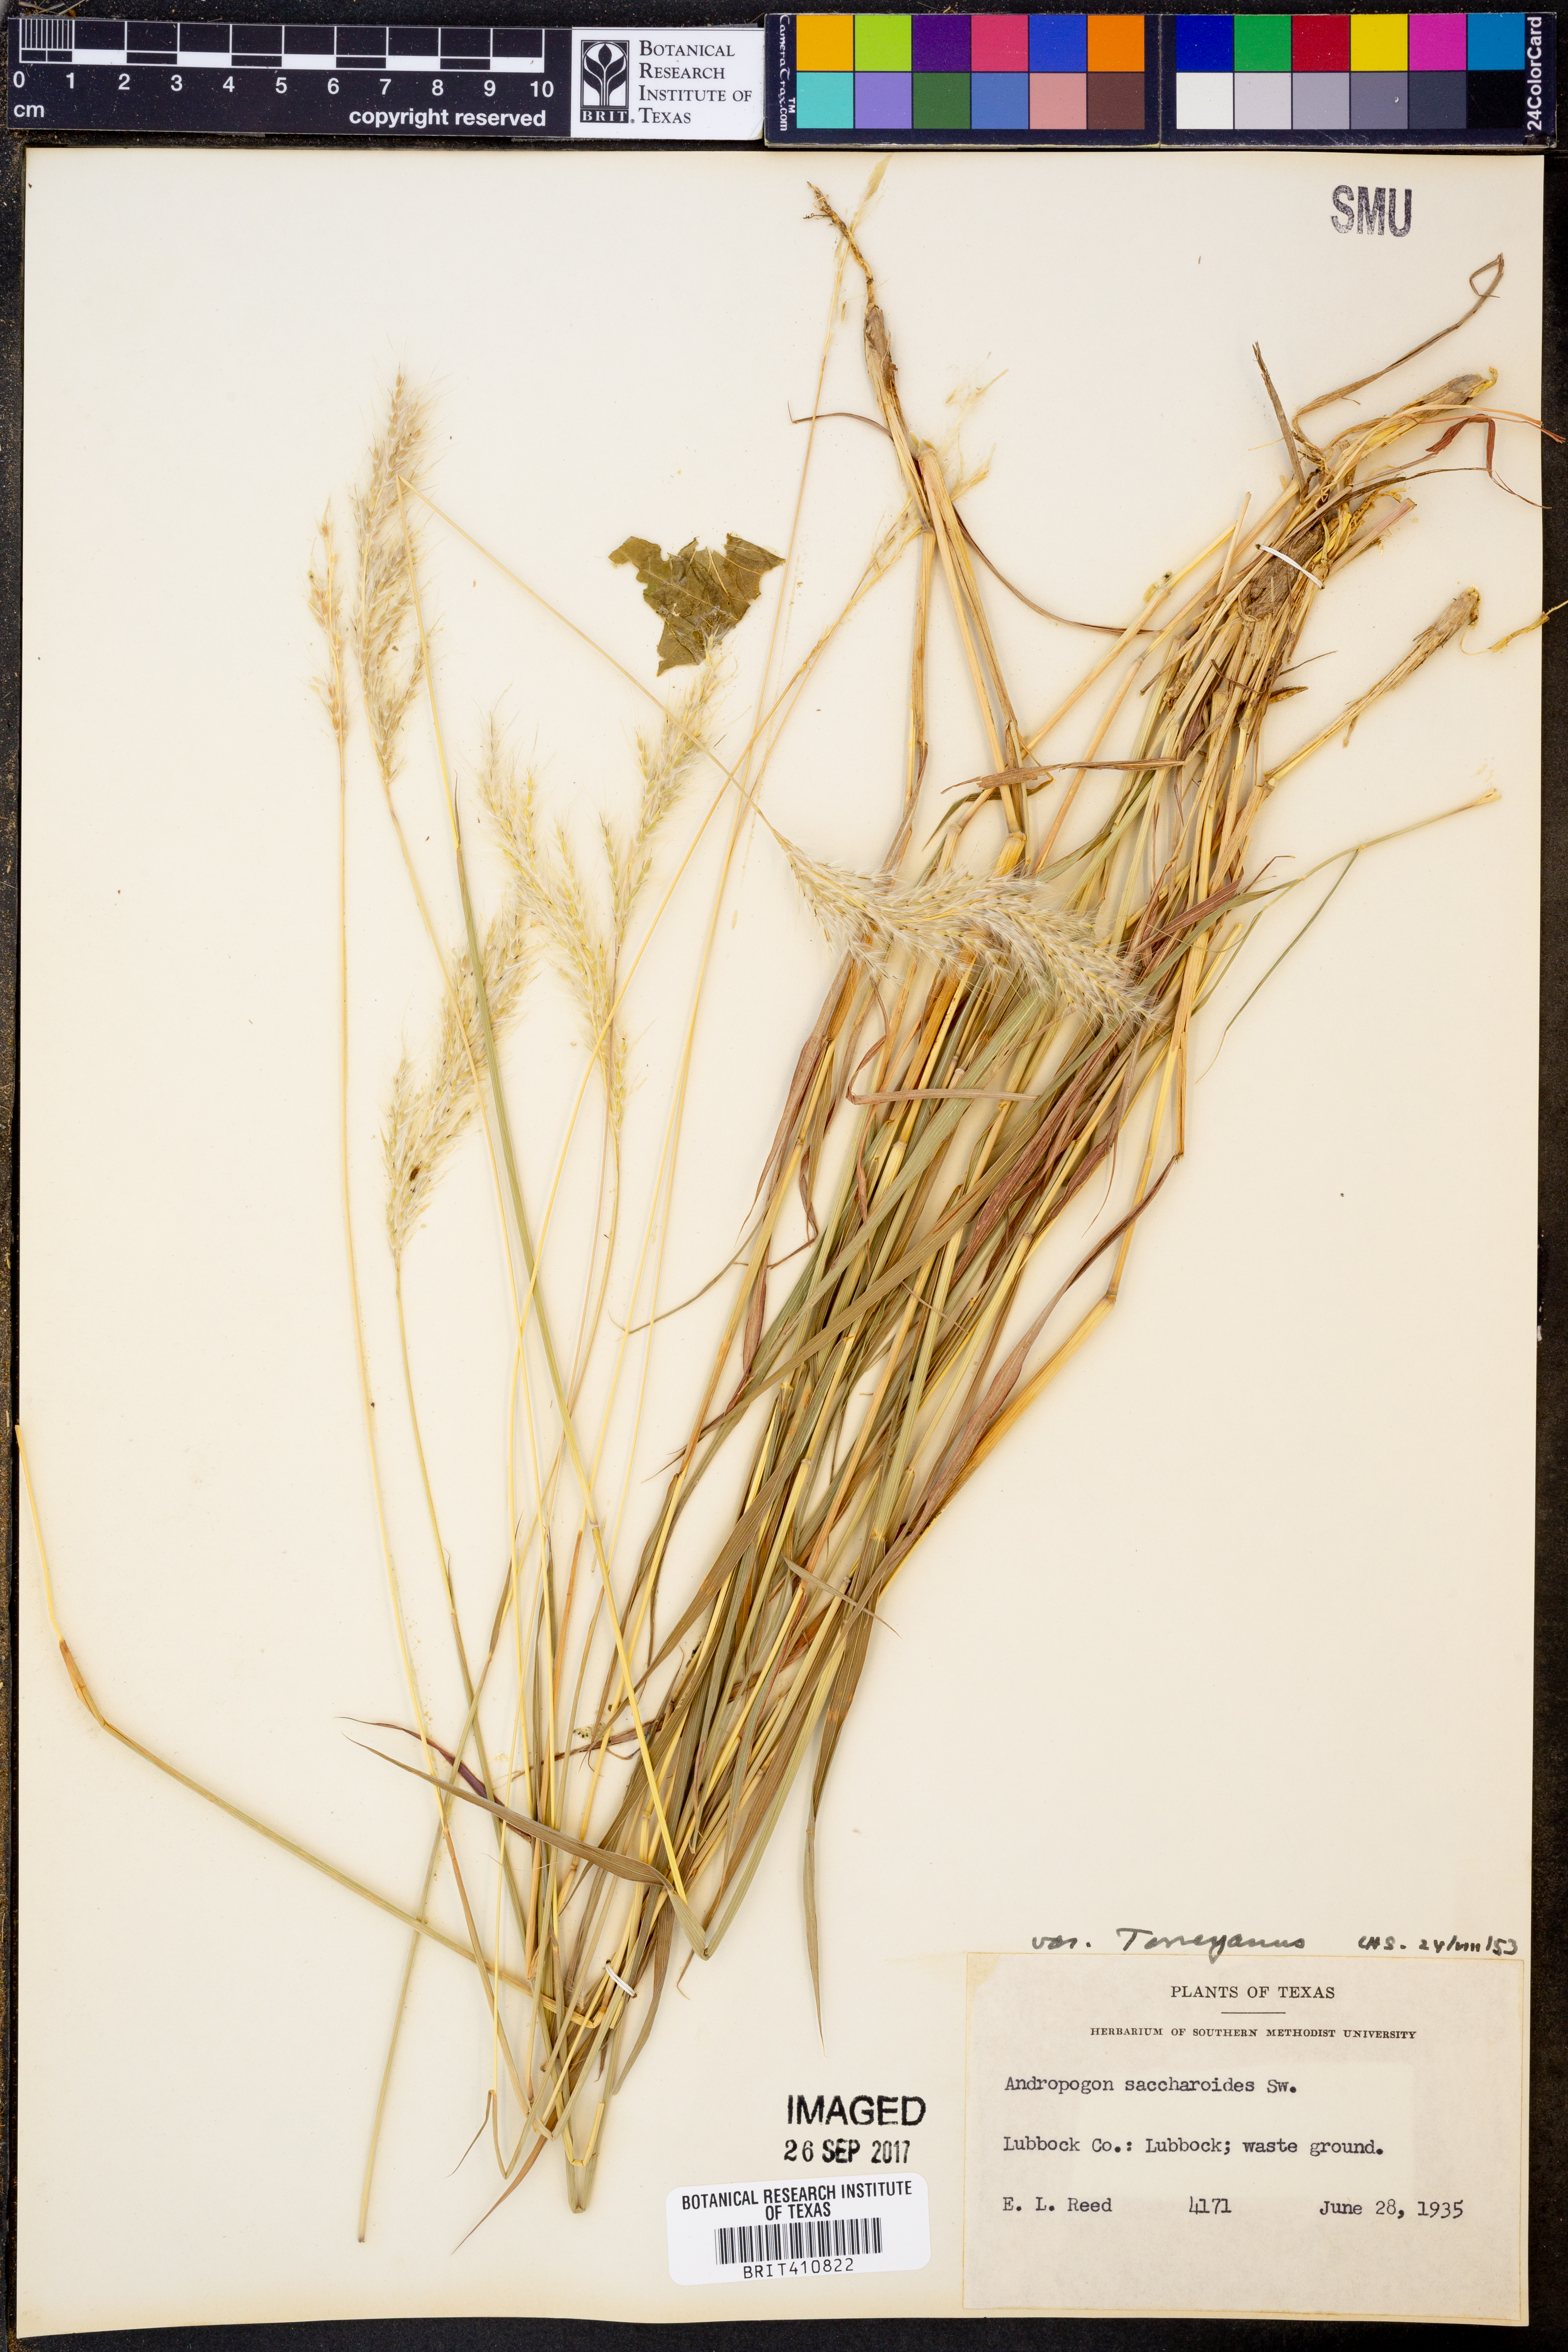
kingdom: Plantae
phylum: Tracheophyta
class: Liliopsida
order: Poales
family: Poaceae
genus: Bothriochloa
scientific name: Bothriochloa torreyana
